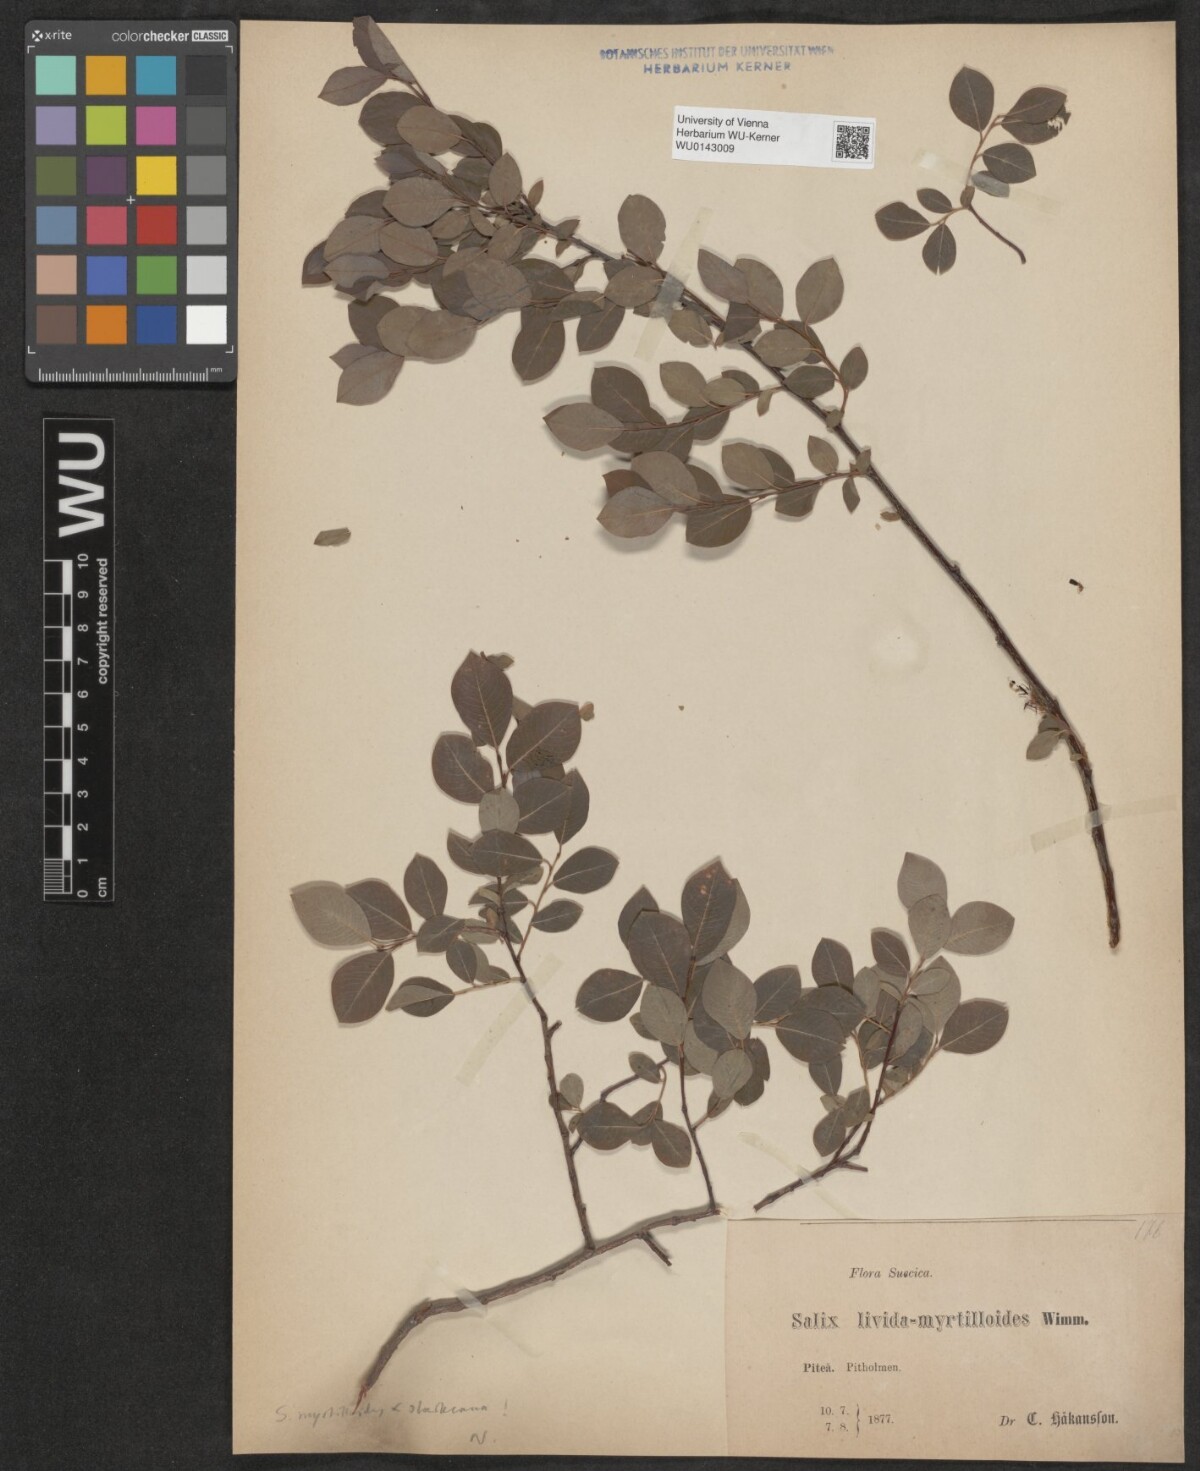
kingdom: Plantae
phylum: Tracheophyta
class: Magnoliopsida
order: Malpighiales
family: Salicaceae
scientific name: Salicaceae
